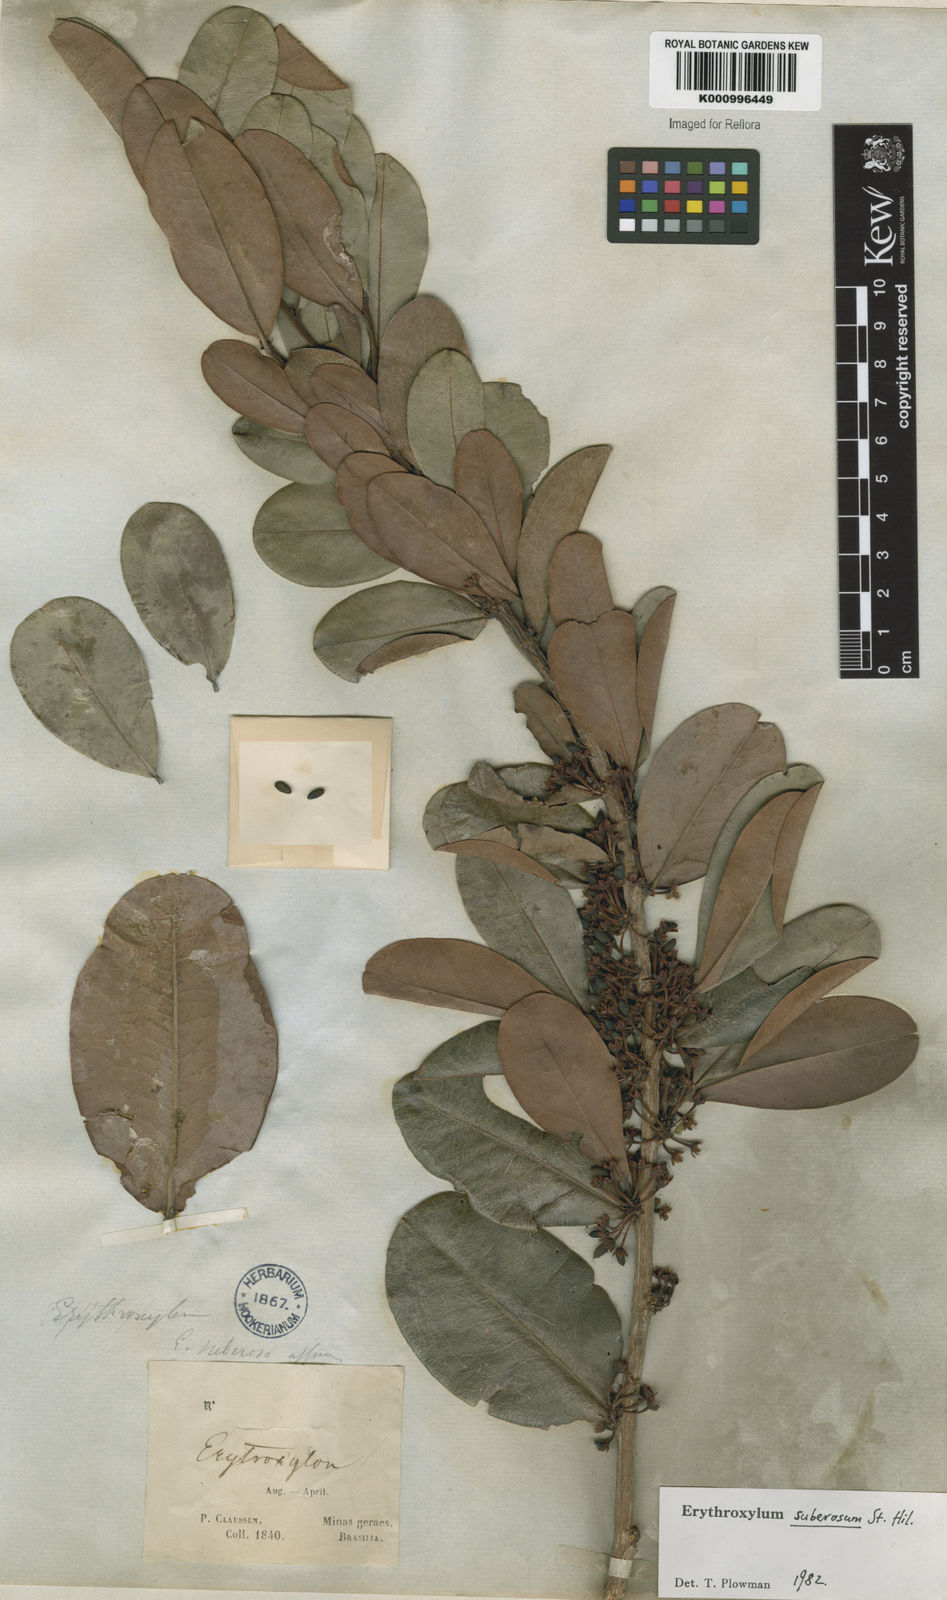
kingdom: Plantae
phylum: Tracheophyta
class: Magnoliopsida
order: Malpighiales
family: Erythroxylaceae
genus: Erythroxylum
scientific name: Erythroxylum suberosum
